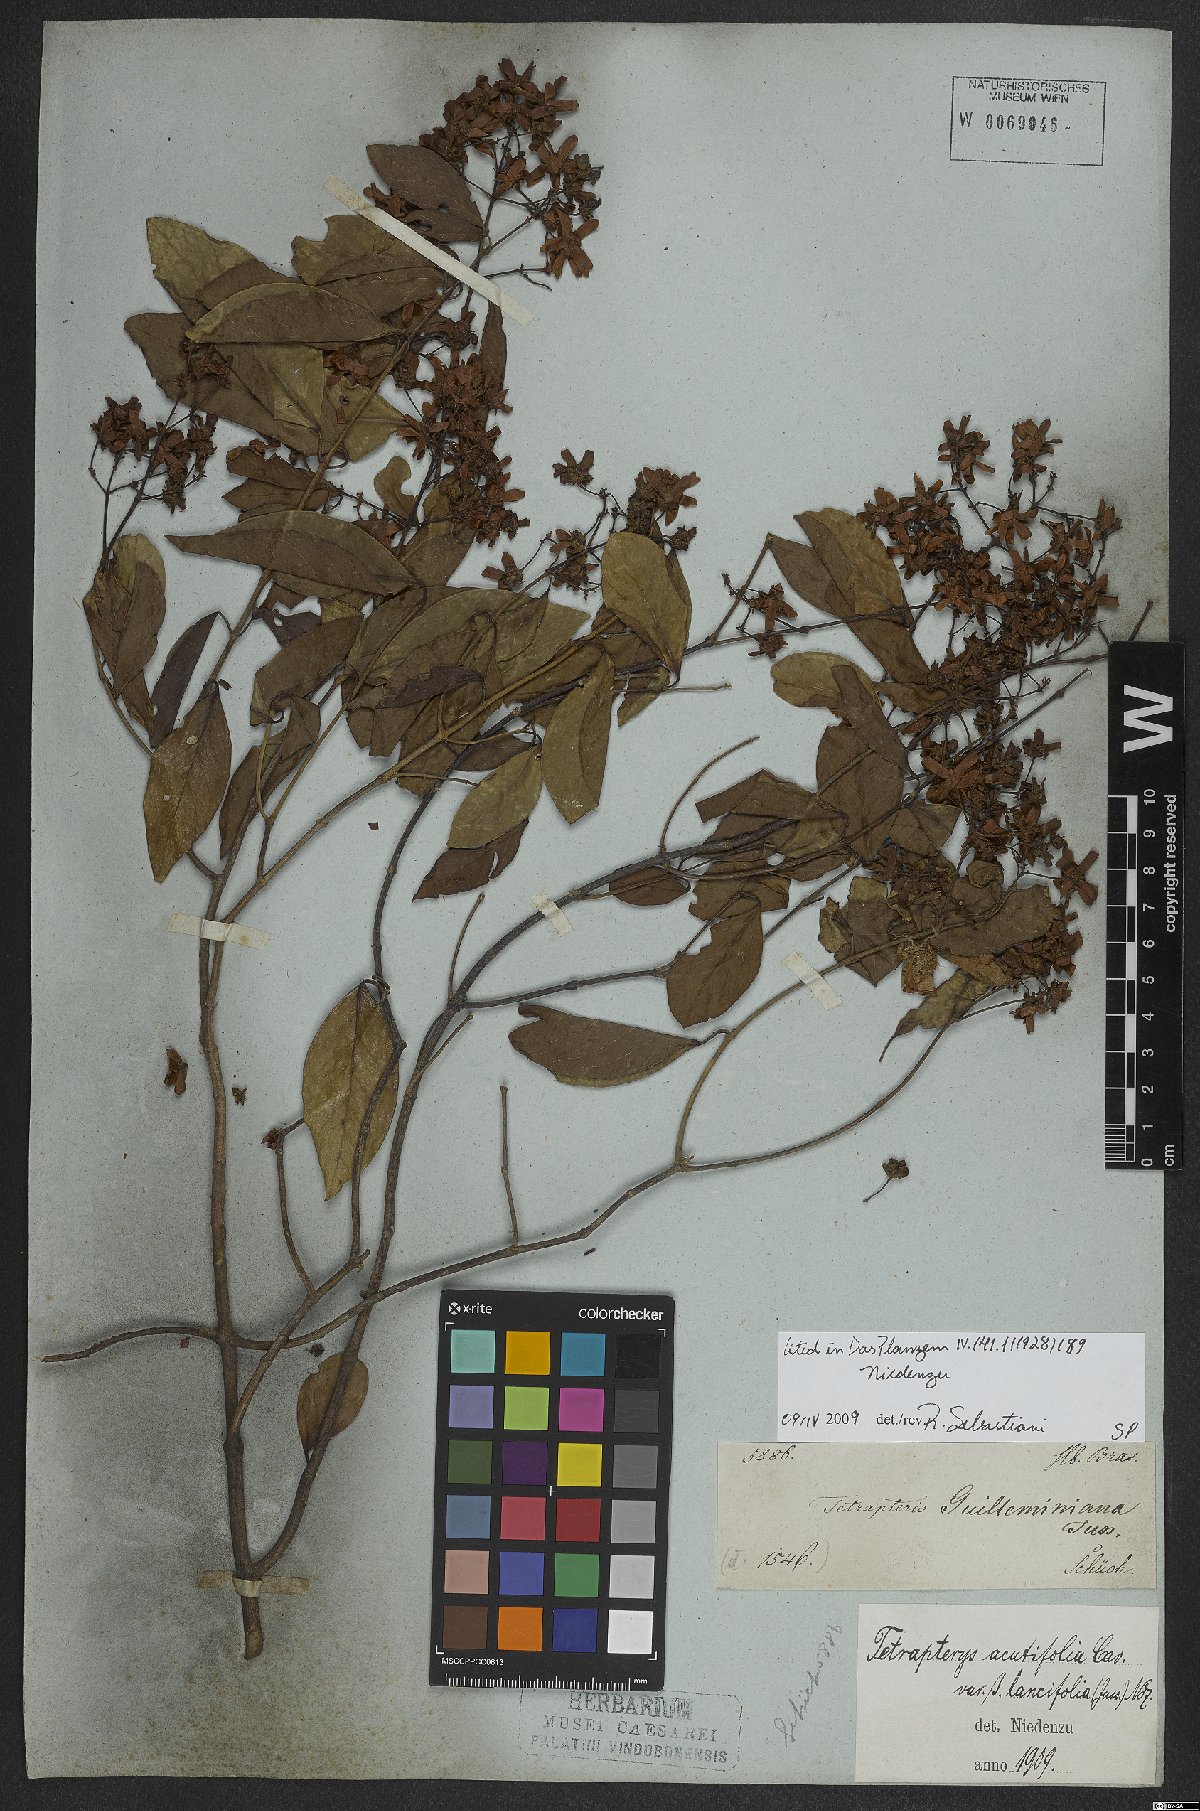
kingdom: Plantae
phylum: Tracheophyta
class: Magnoliopsida
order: Malpighiales
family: Malpighiaceae
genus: Niedenzuella
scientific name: Niedenzuella acutifolia
